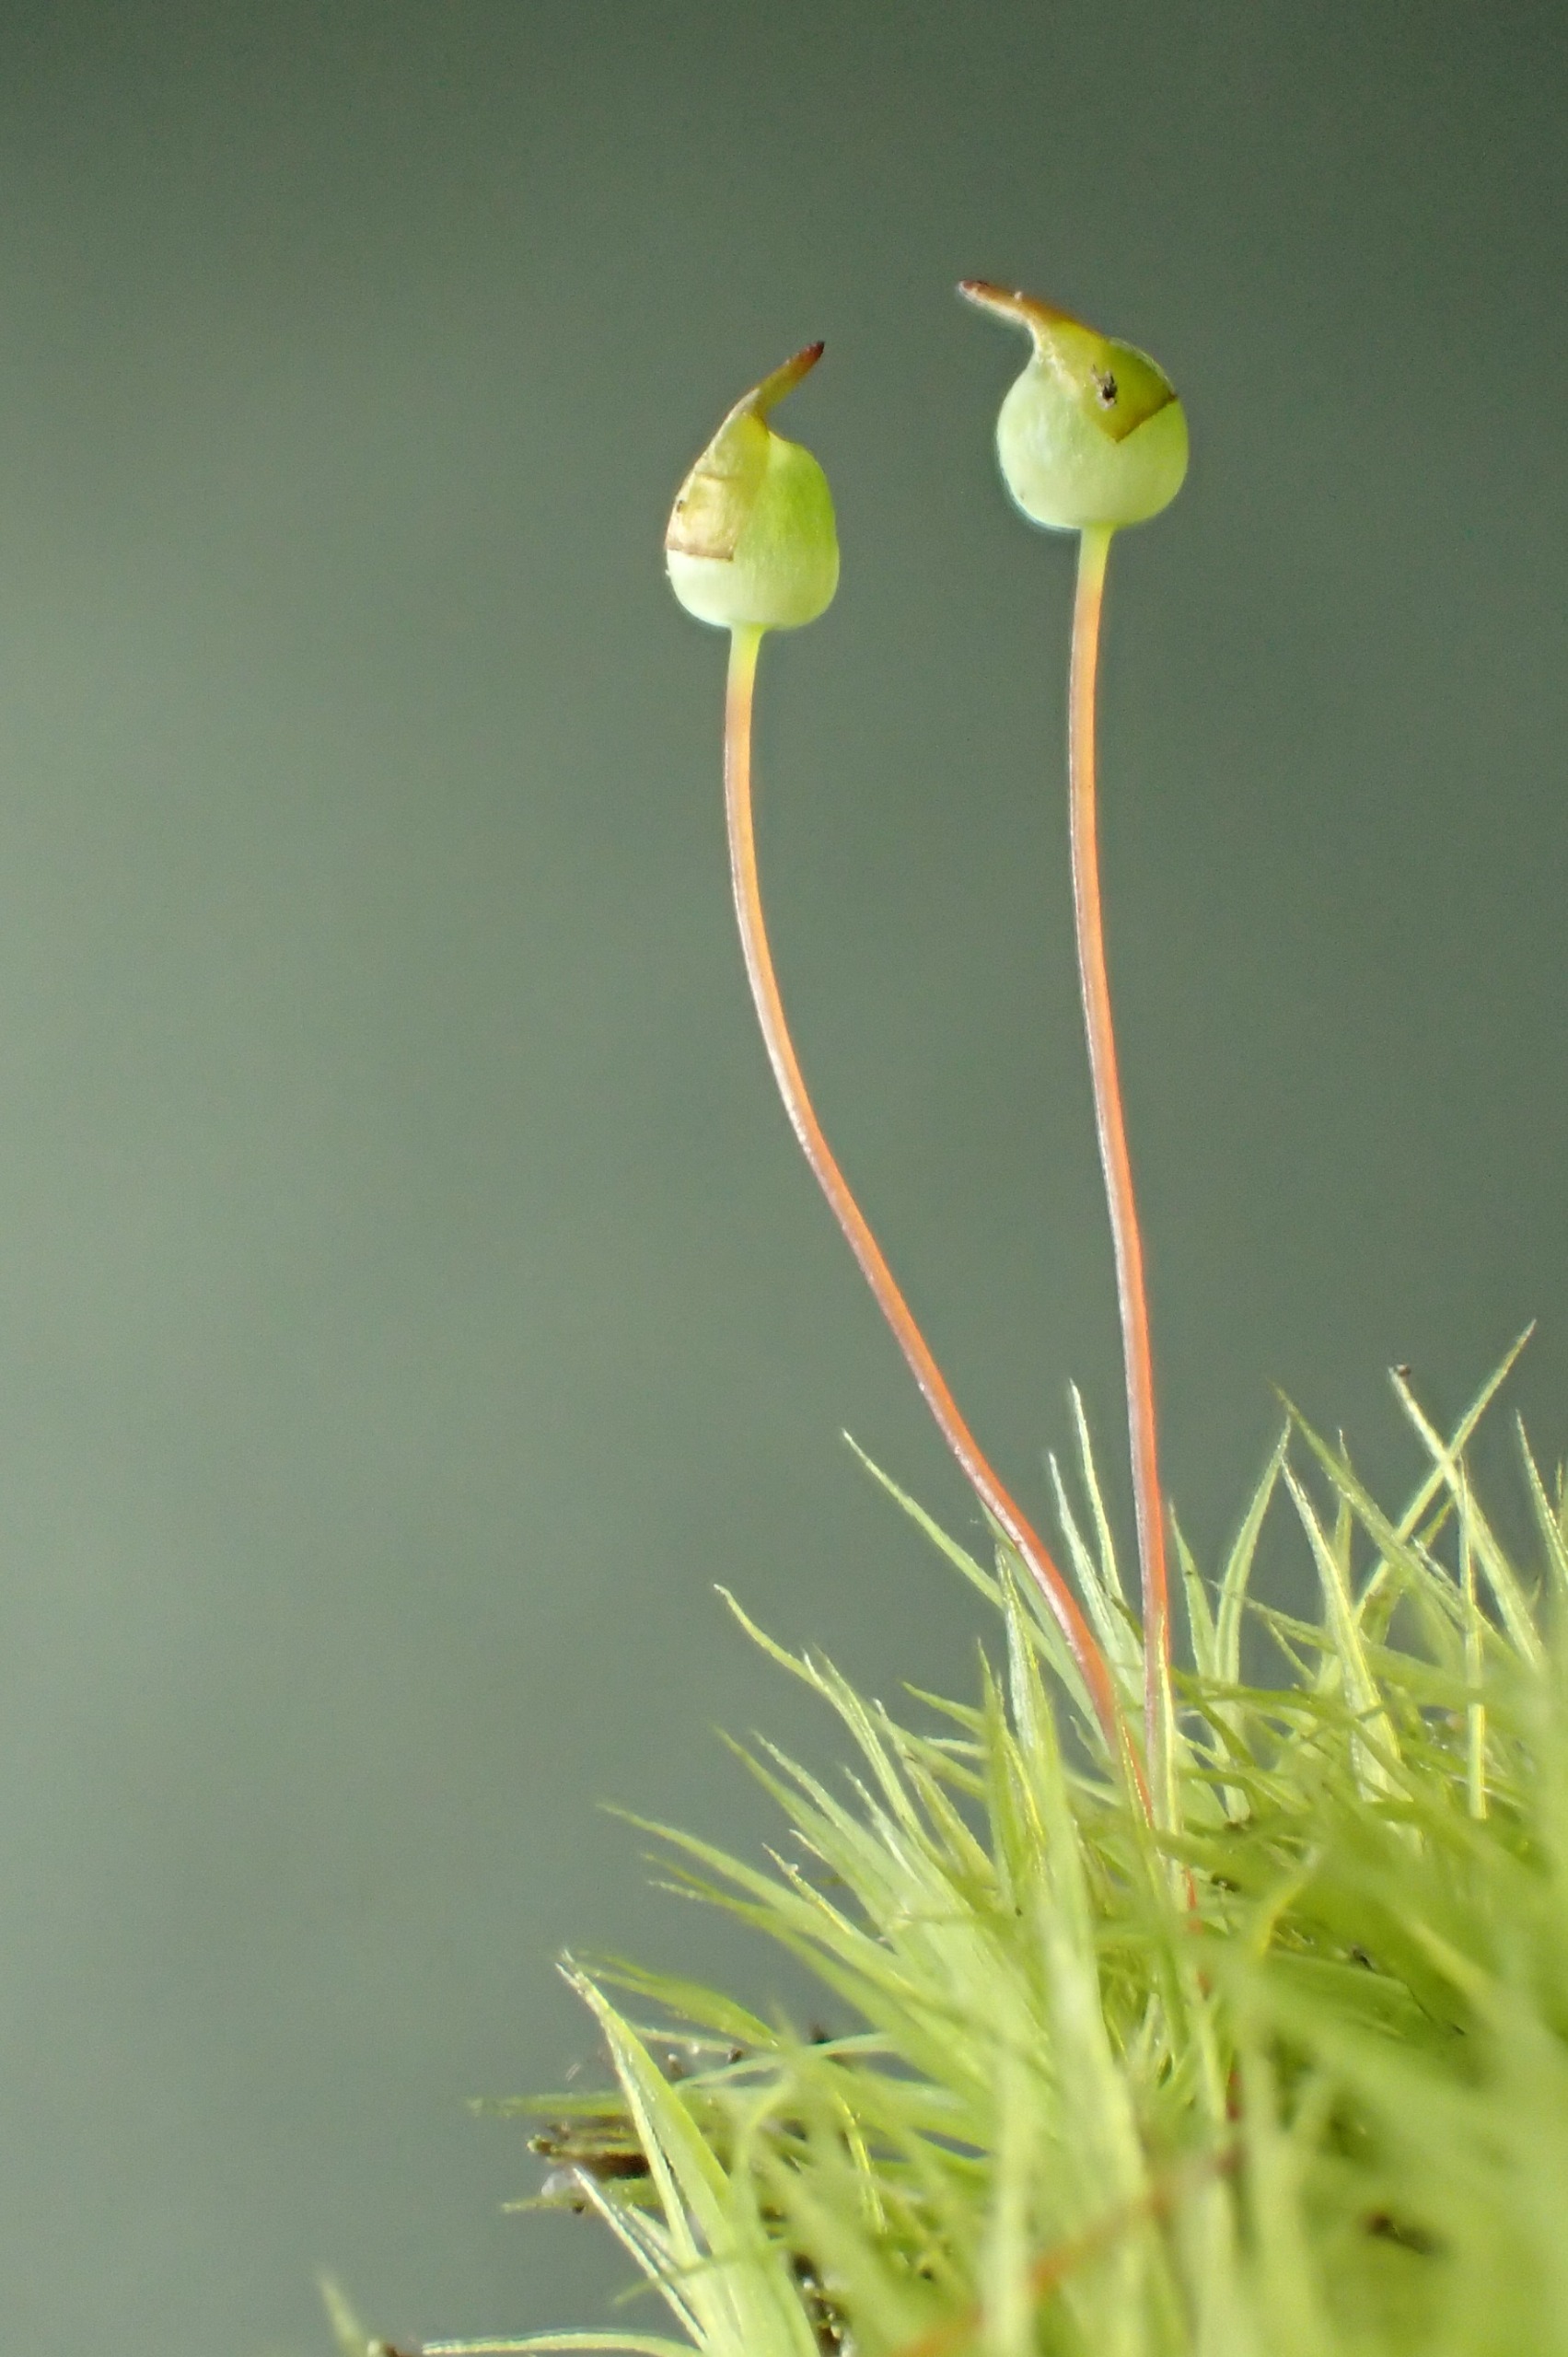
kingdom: Plantae
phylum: Bryophyta
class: Bryopsida
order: Bartramiales
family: Bartramiaceae
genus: Bartramia
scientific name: Bartramia pomiformis
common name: Gulgrøn kuglekapsel
